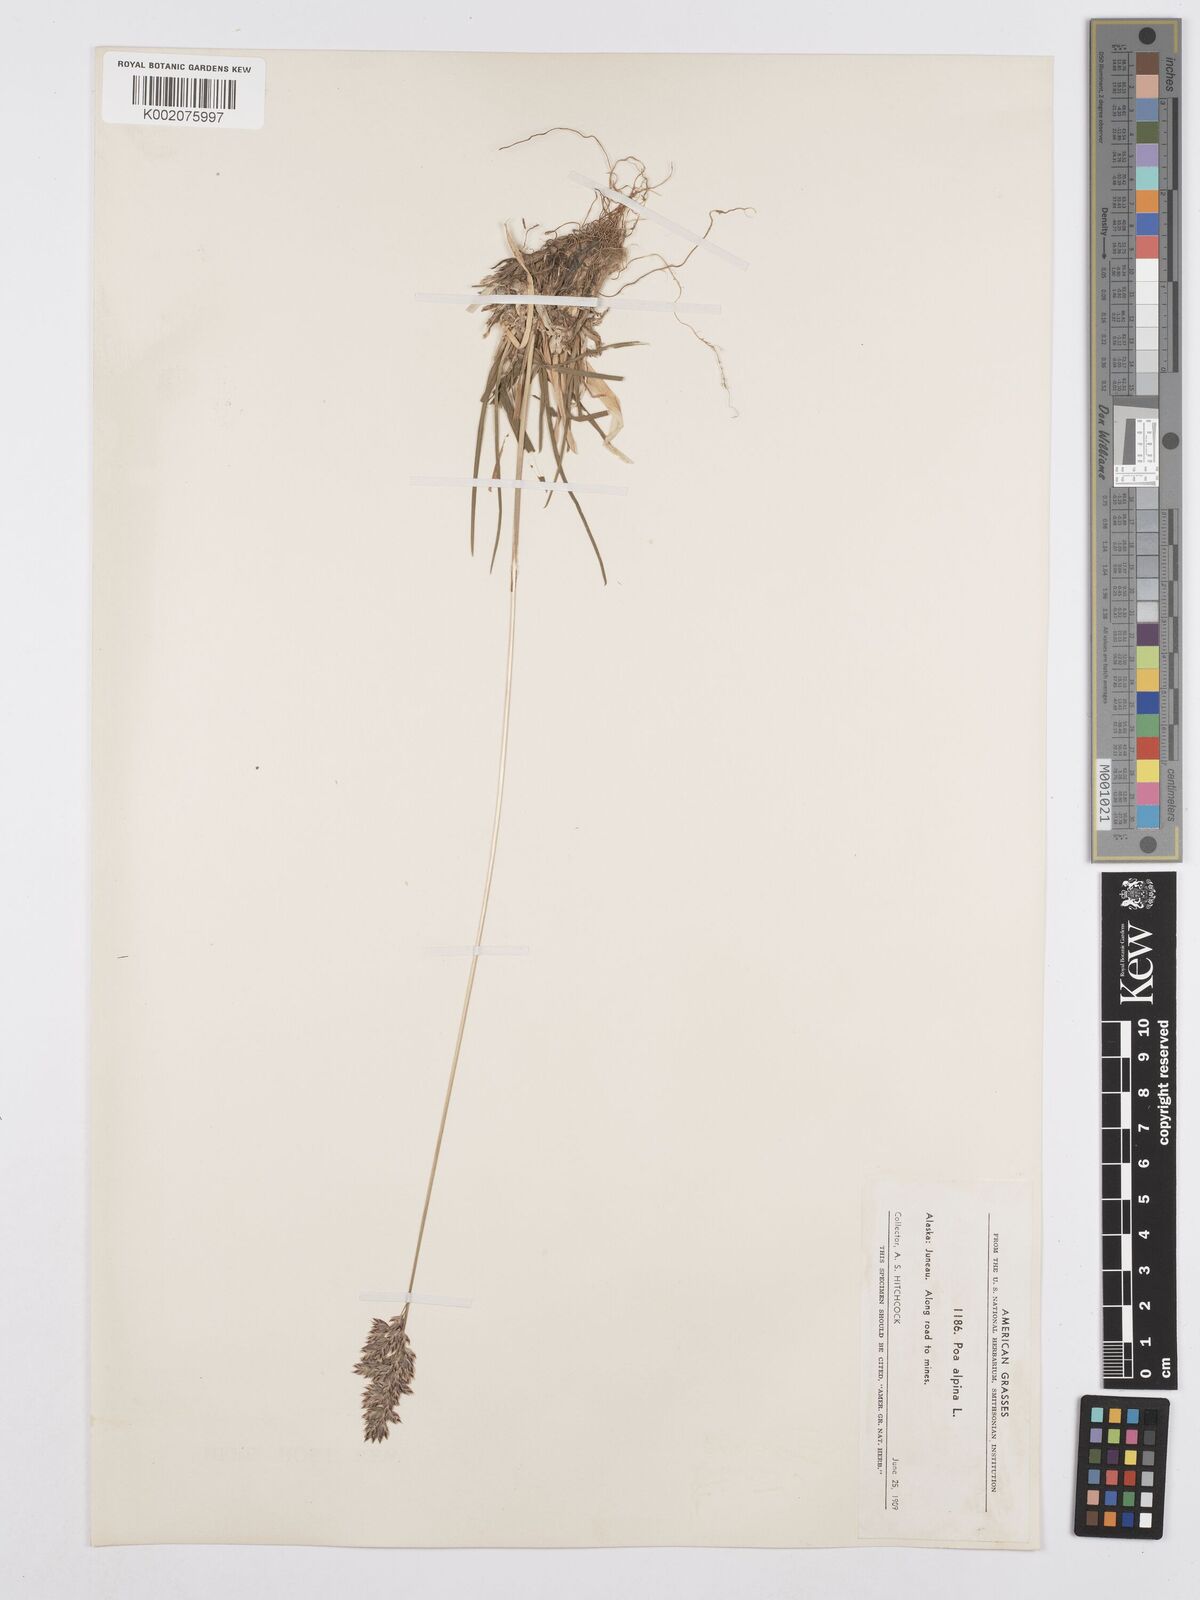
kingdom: Plantae
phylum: Tracheophyta
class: Liliopsida
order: Poales
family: Poaceae
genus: Poa
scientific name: Poa alpina
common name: Alpine bluegrass
